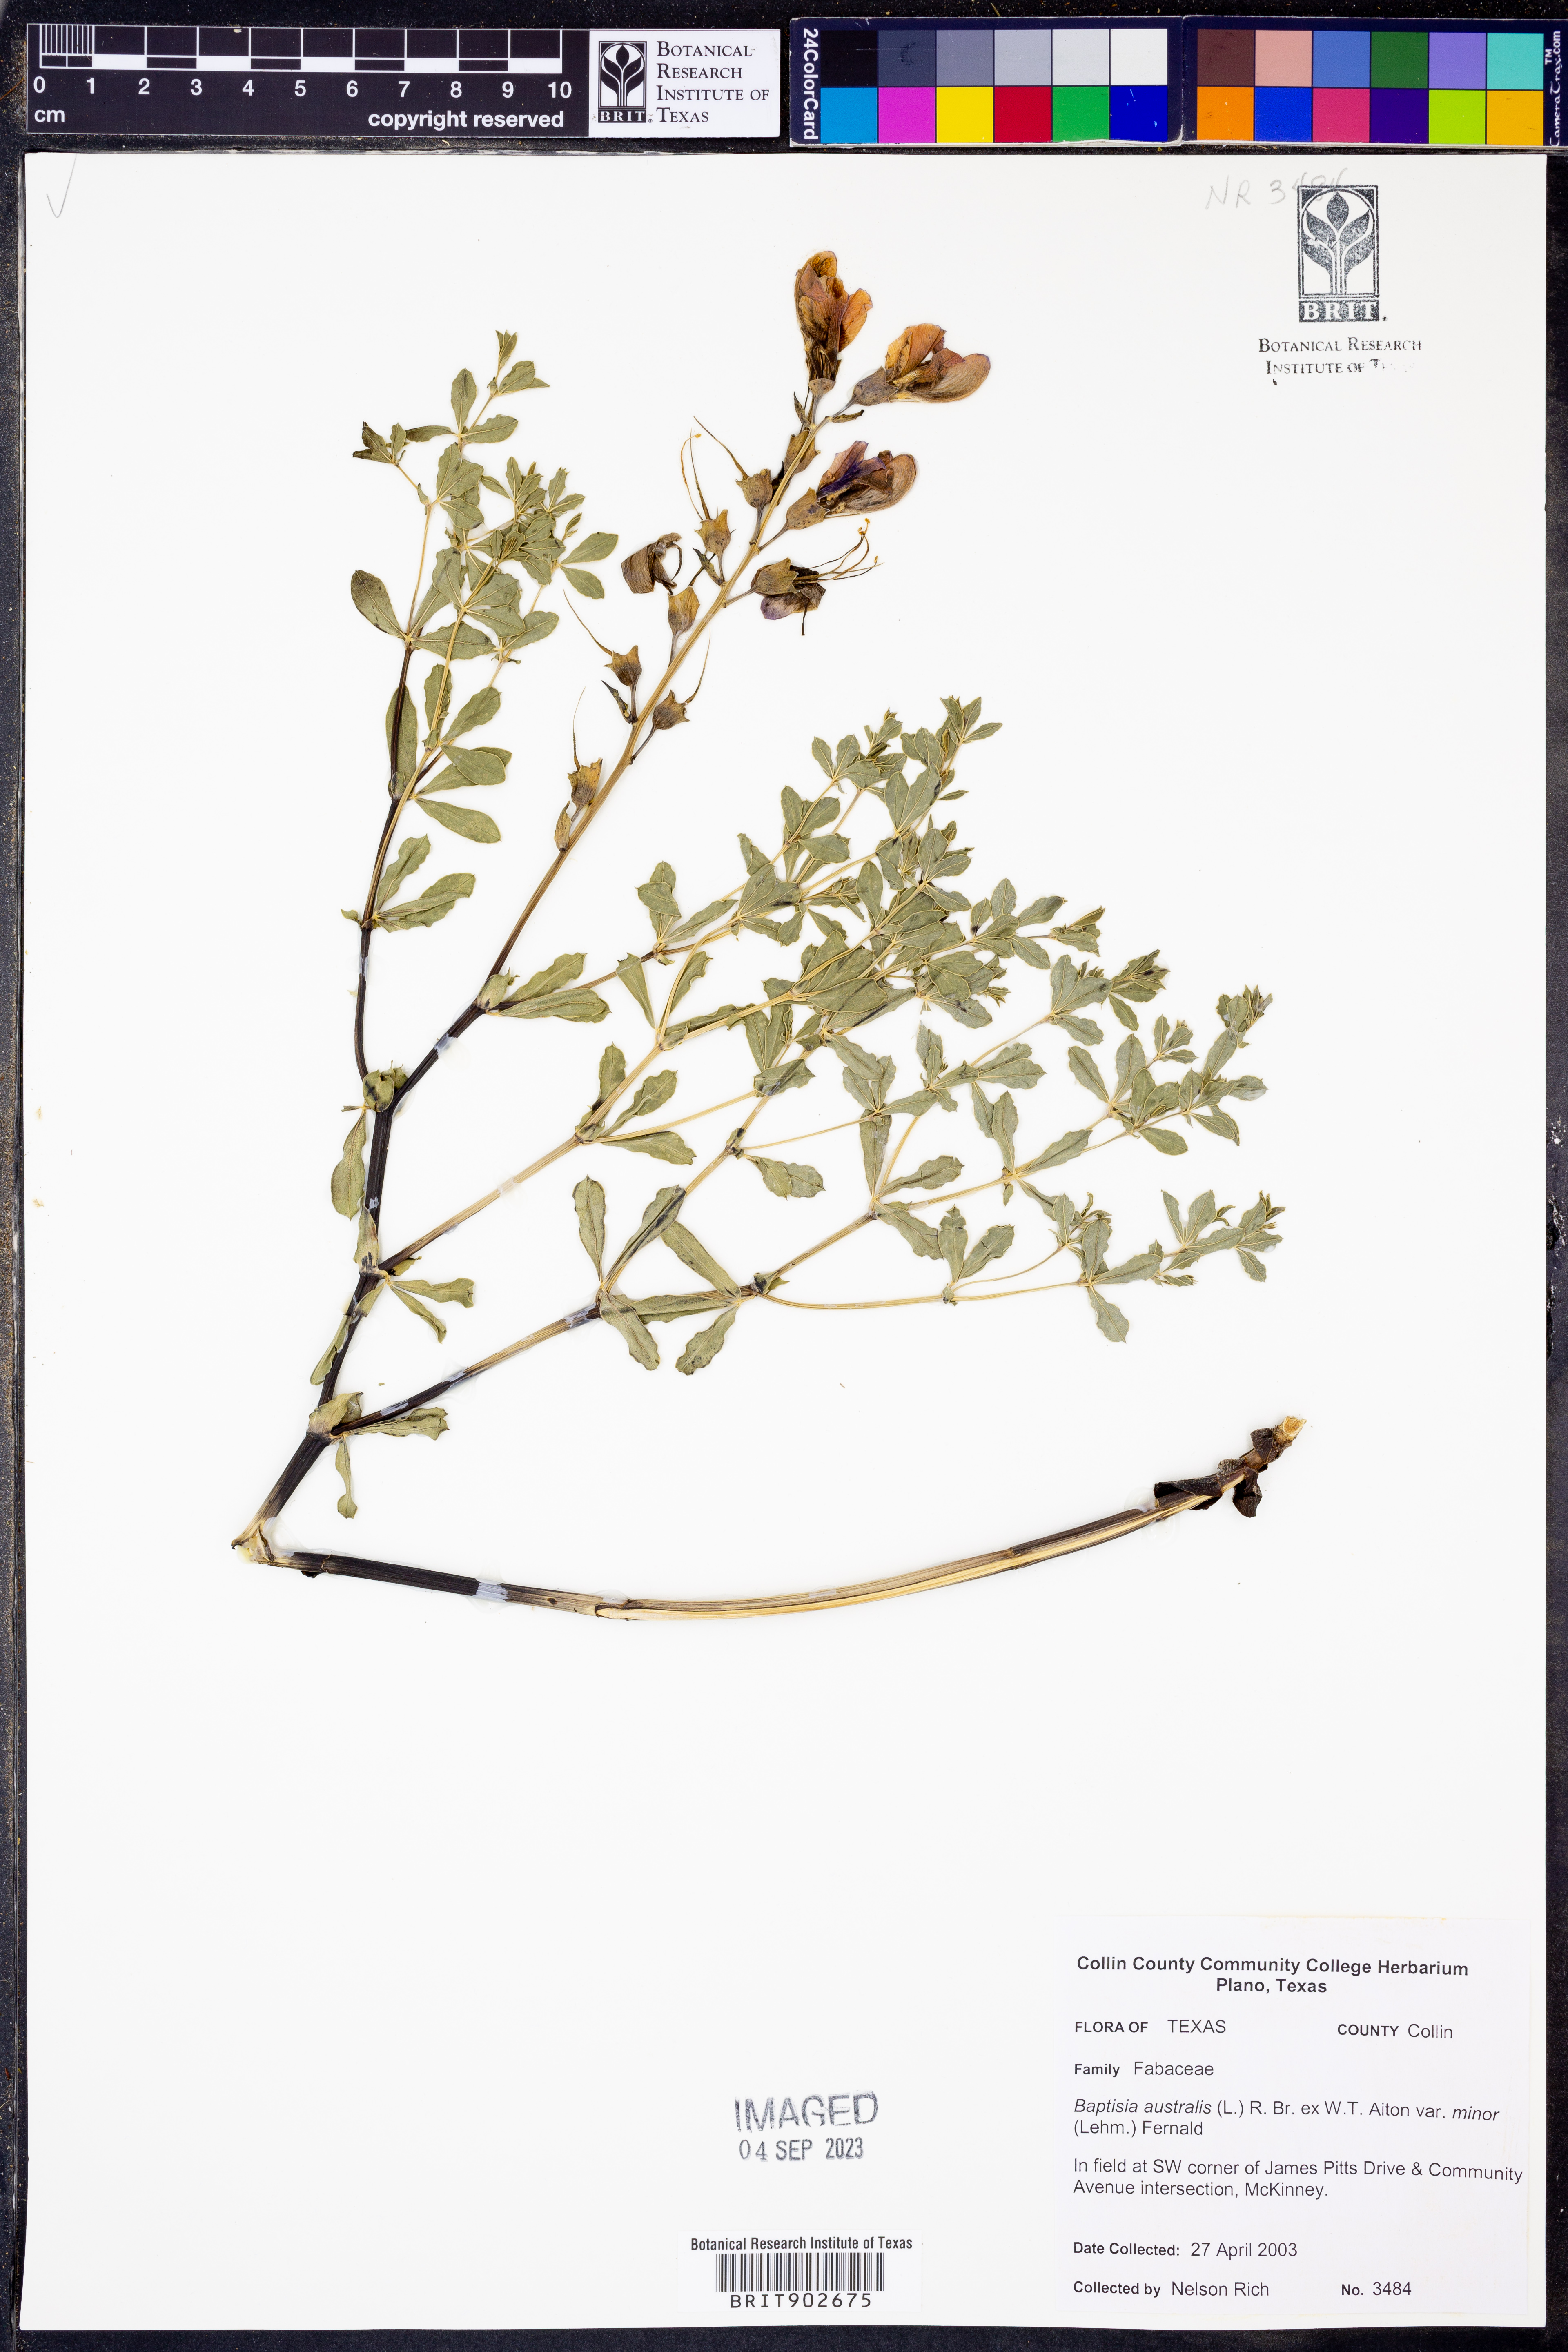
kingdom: Plantae
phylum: Tracheophyta
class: Magnoliopsida
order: Fabales
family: Fabaceae
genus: Baptisia
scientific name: Baptisia australis
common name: Blue false indigo
